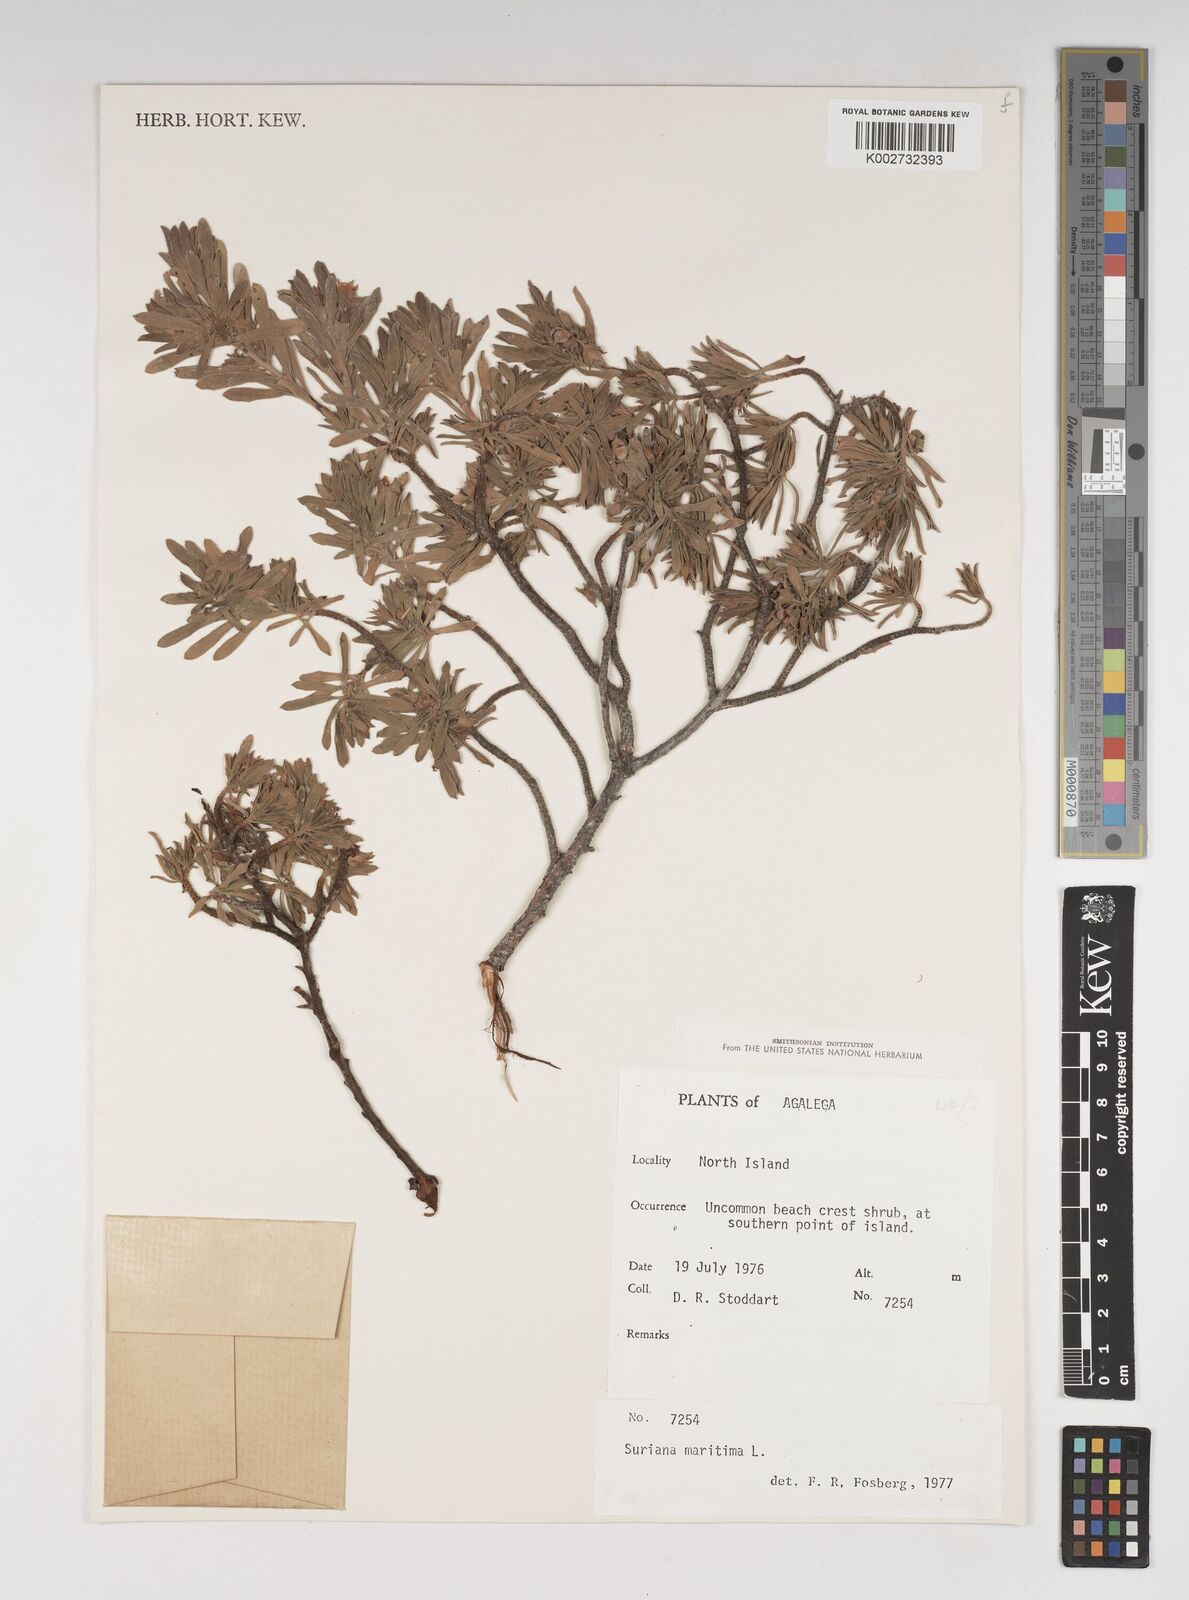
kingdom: Plantae
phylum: Tracheophyta
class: Magnoliopsida
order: Fabales
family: Surianaceae
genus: Suriana
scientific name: Suriana maritima
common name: Bay-cedar
